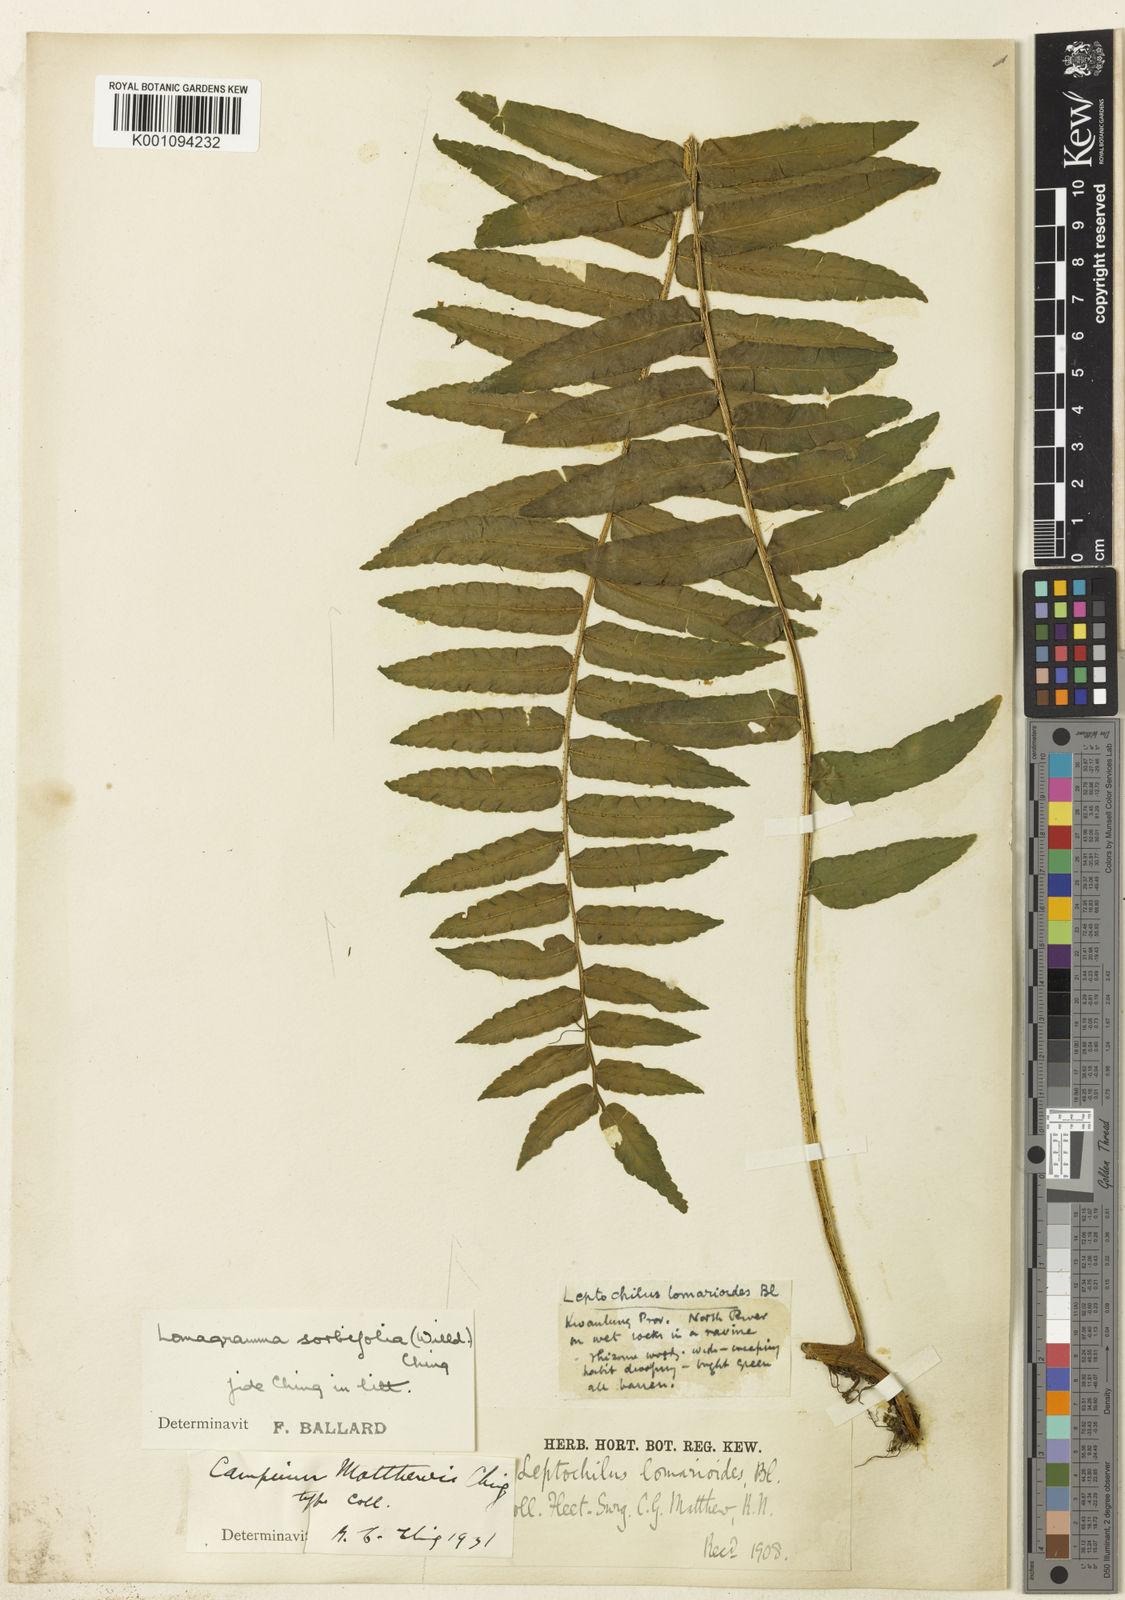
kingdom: Plantae
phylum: Tracheophyta
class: Polypodiopsida
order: Polypodiales
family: Dryopteridaceae
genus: Lomagramma
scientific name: Lomagramma sorbifolia
